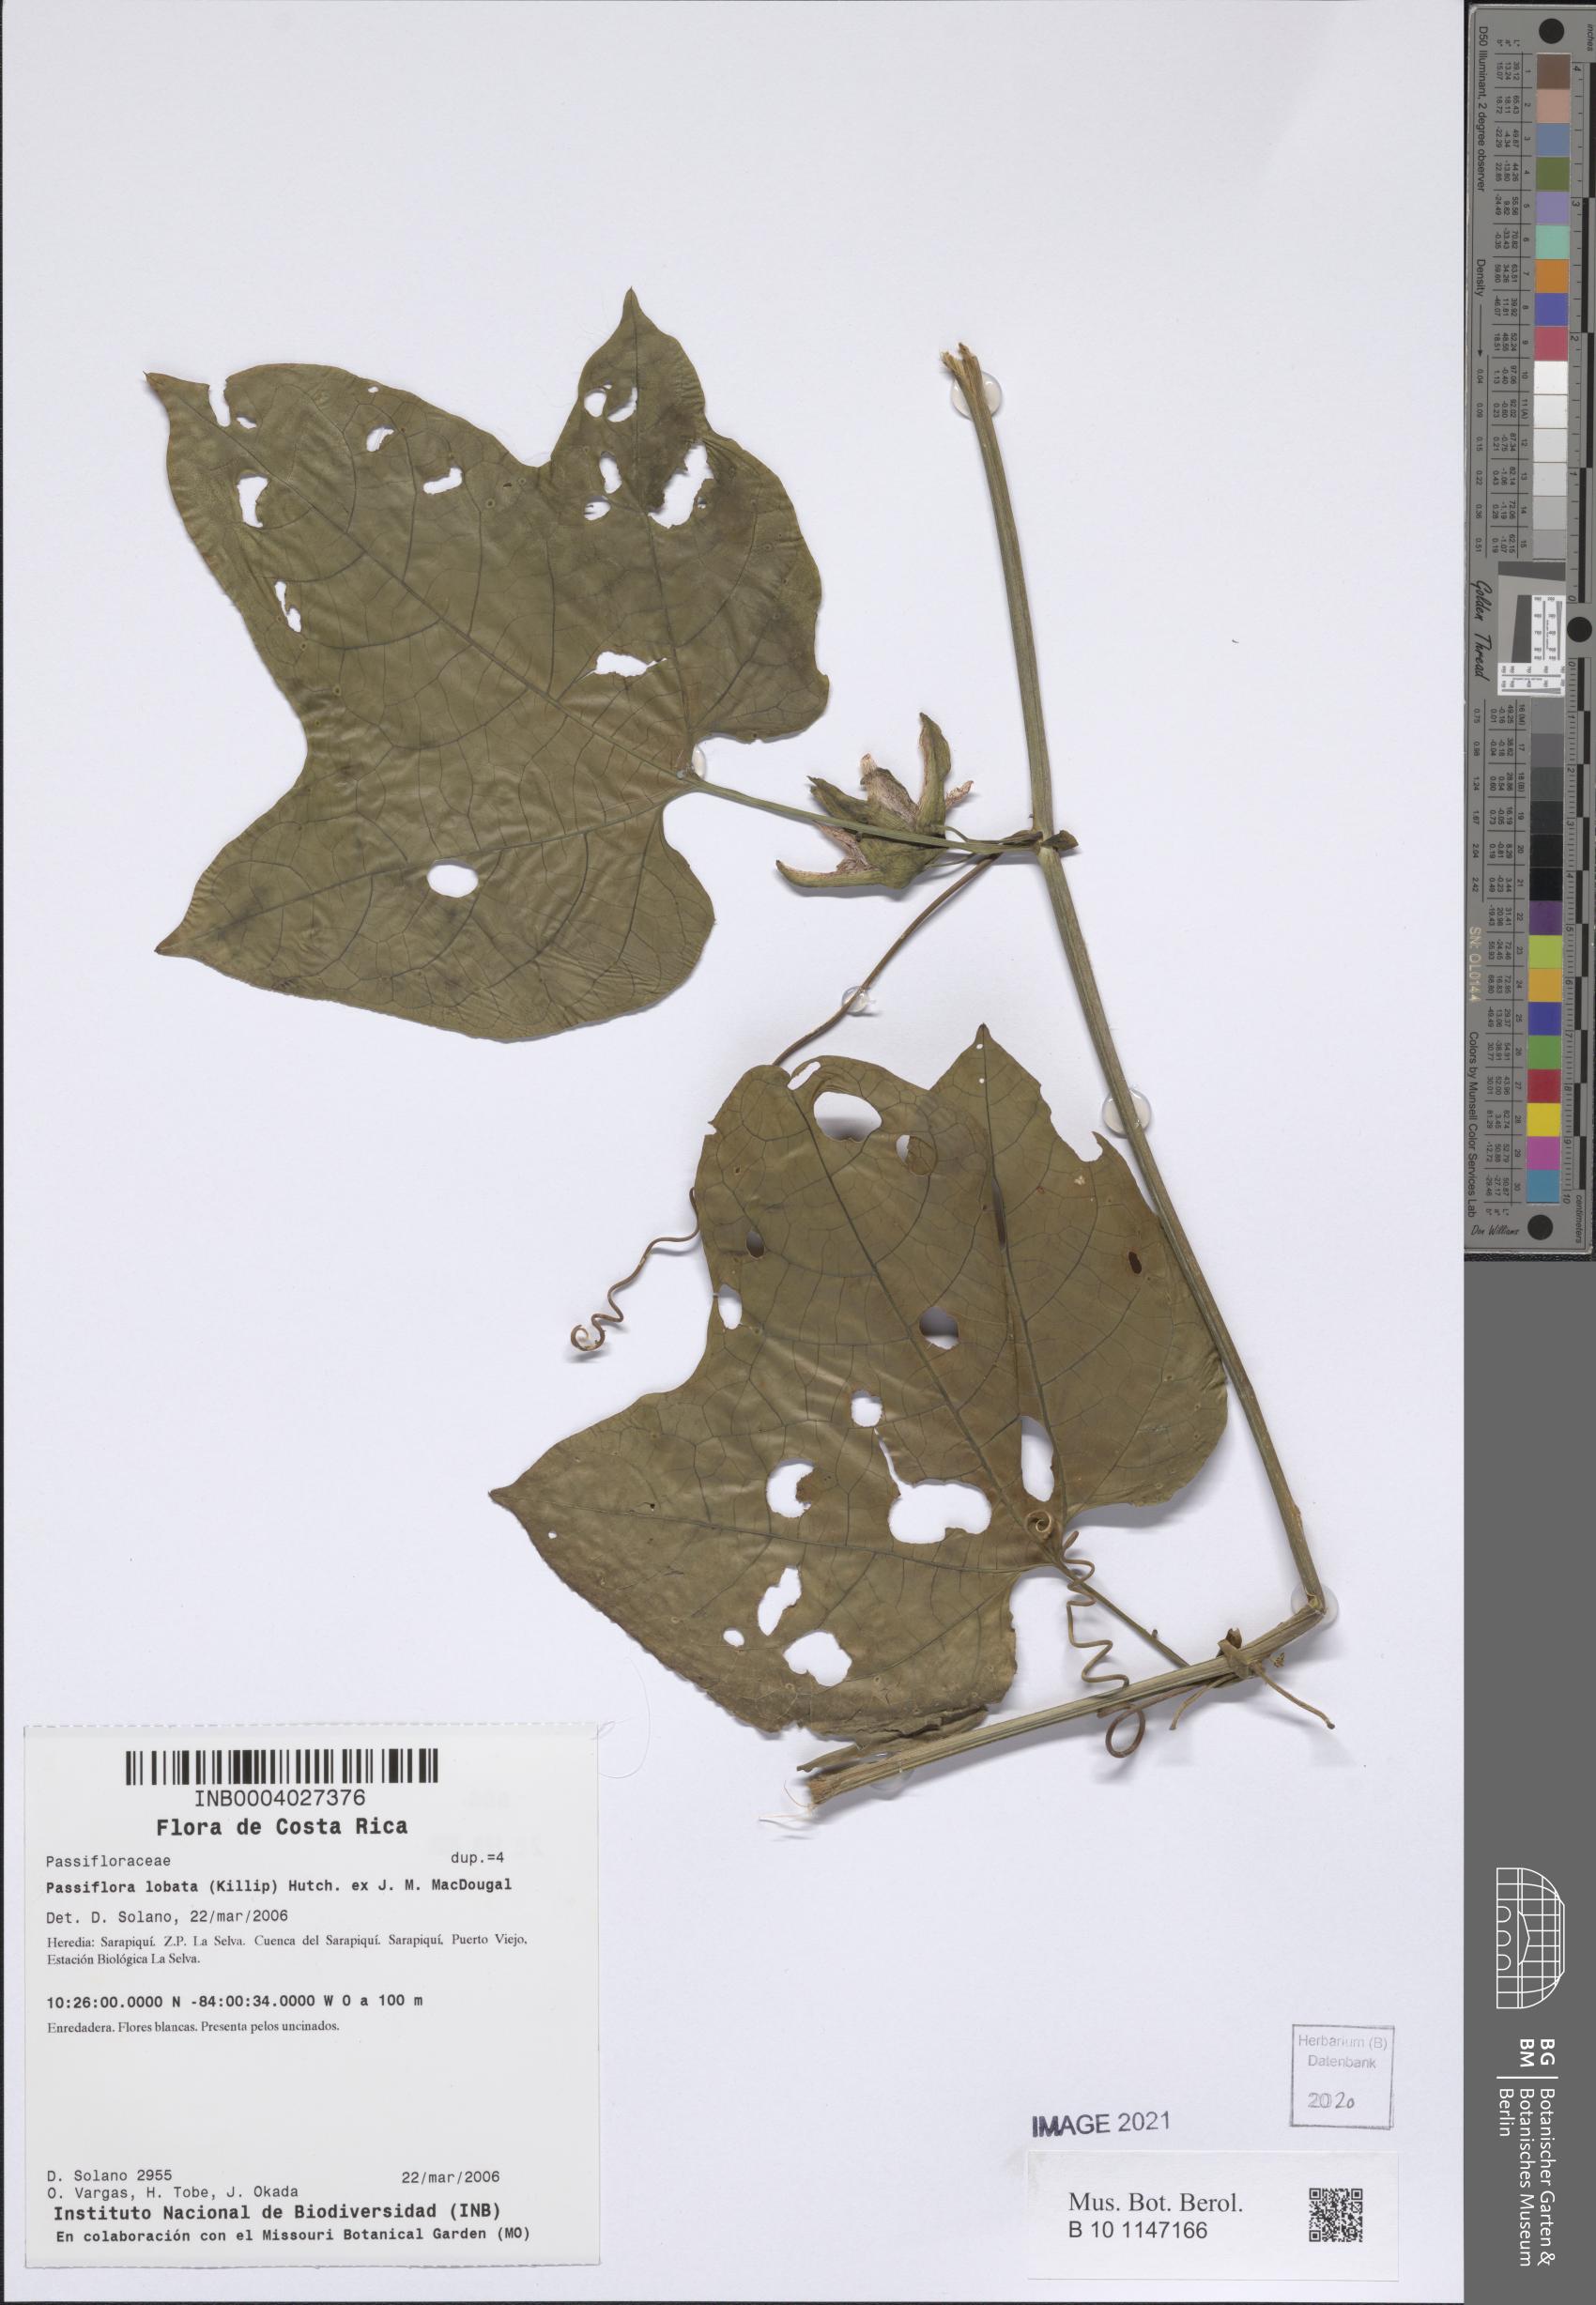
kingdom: Plantae
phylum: Tracheophyta
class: Magnoliopsida
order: Malpighiales
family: Passifloraceae
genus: Passiflora
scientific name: Passiflora lobata
